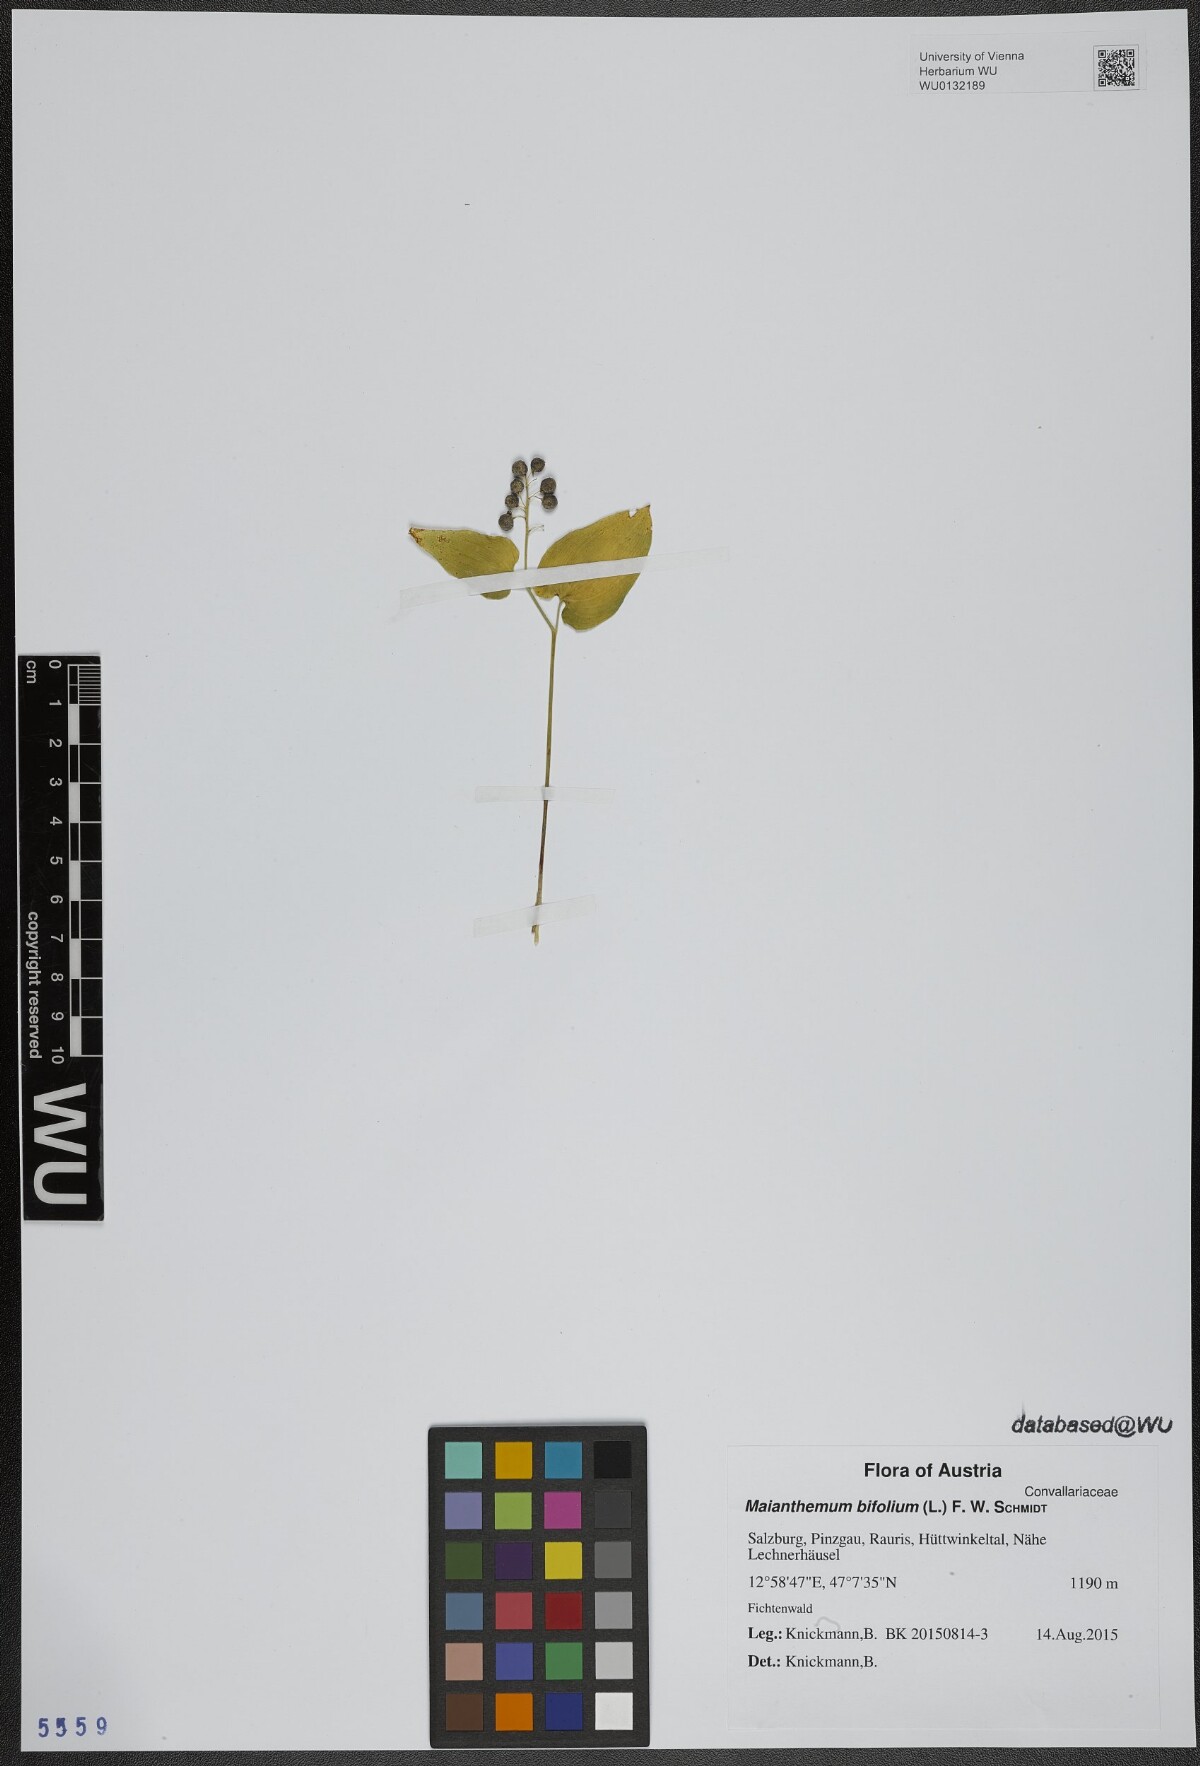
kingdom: Plantae
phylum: Tracheophyta
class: Liliopsida
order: Asparagales
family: Asparagaceae
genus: Maianthemum
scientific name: Maianthemum bifolium
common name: May lily
